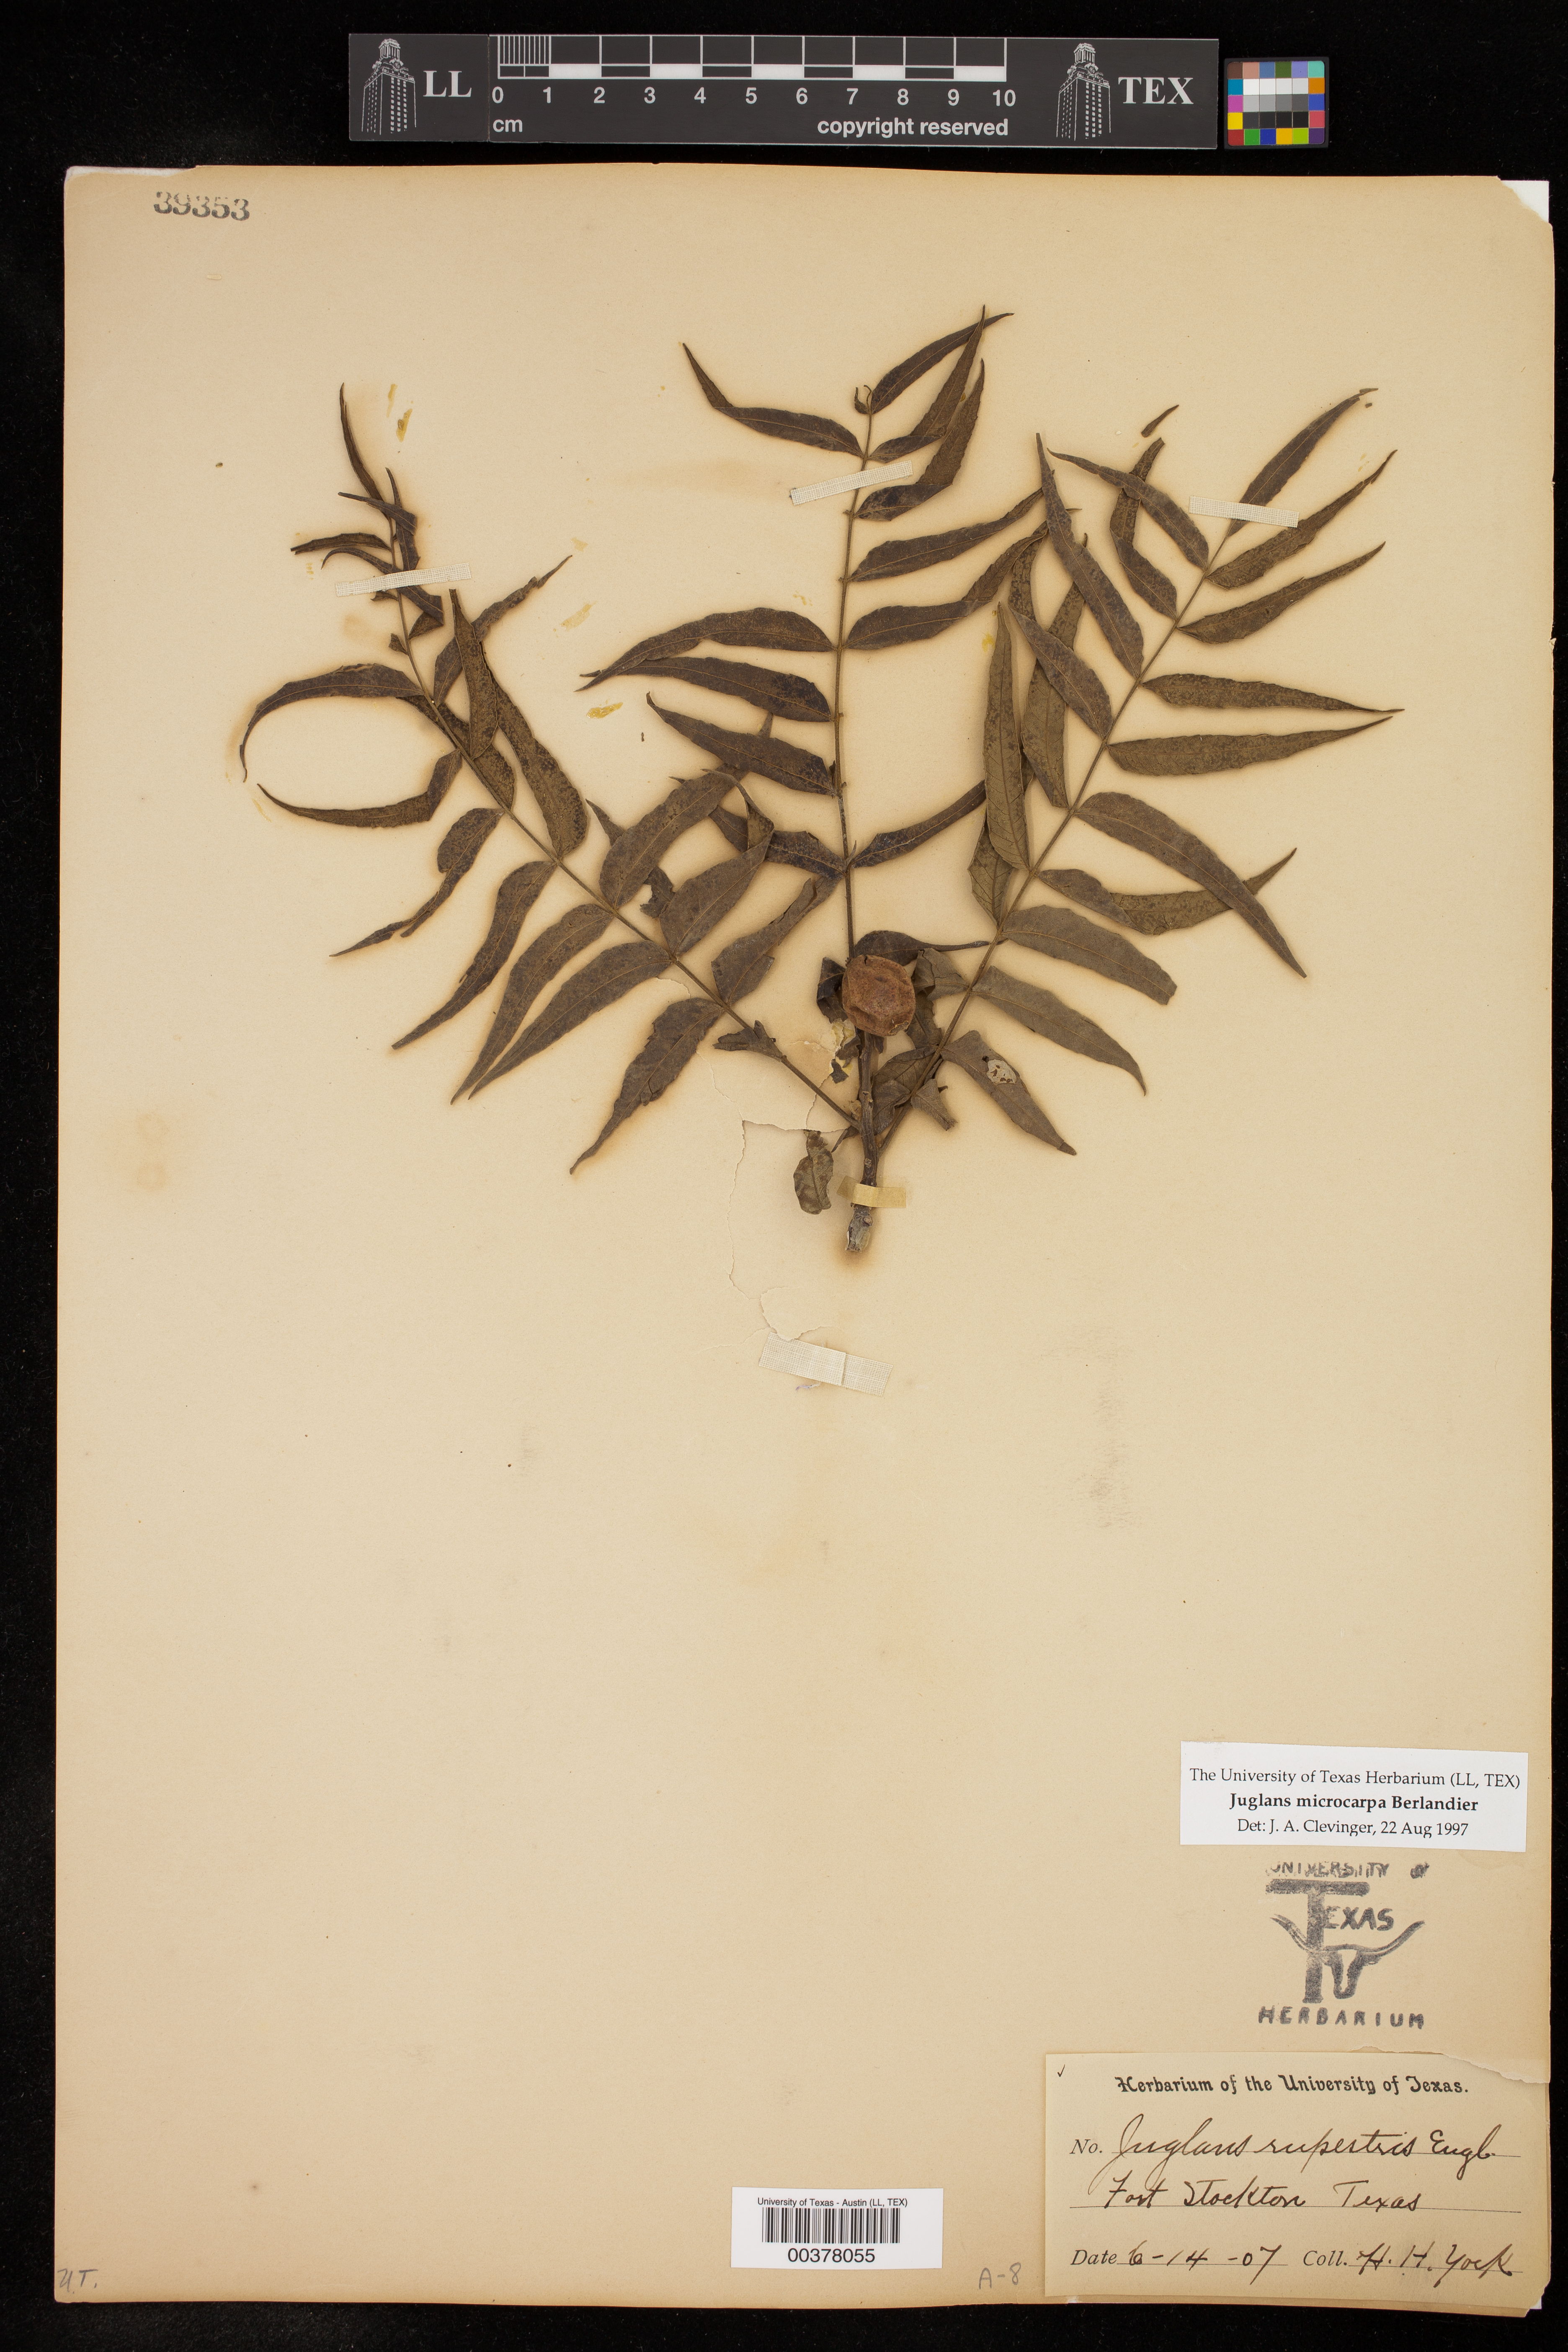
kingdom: Plantae
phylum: Tracheophyta
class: Magnoliopsida
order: Fagales
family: Juglandaceae
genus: Juglans
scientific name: Juglans microcarpa
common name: Texas walnut
